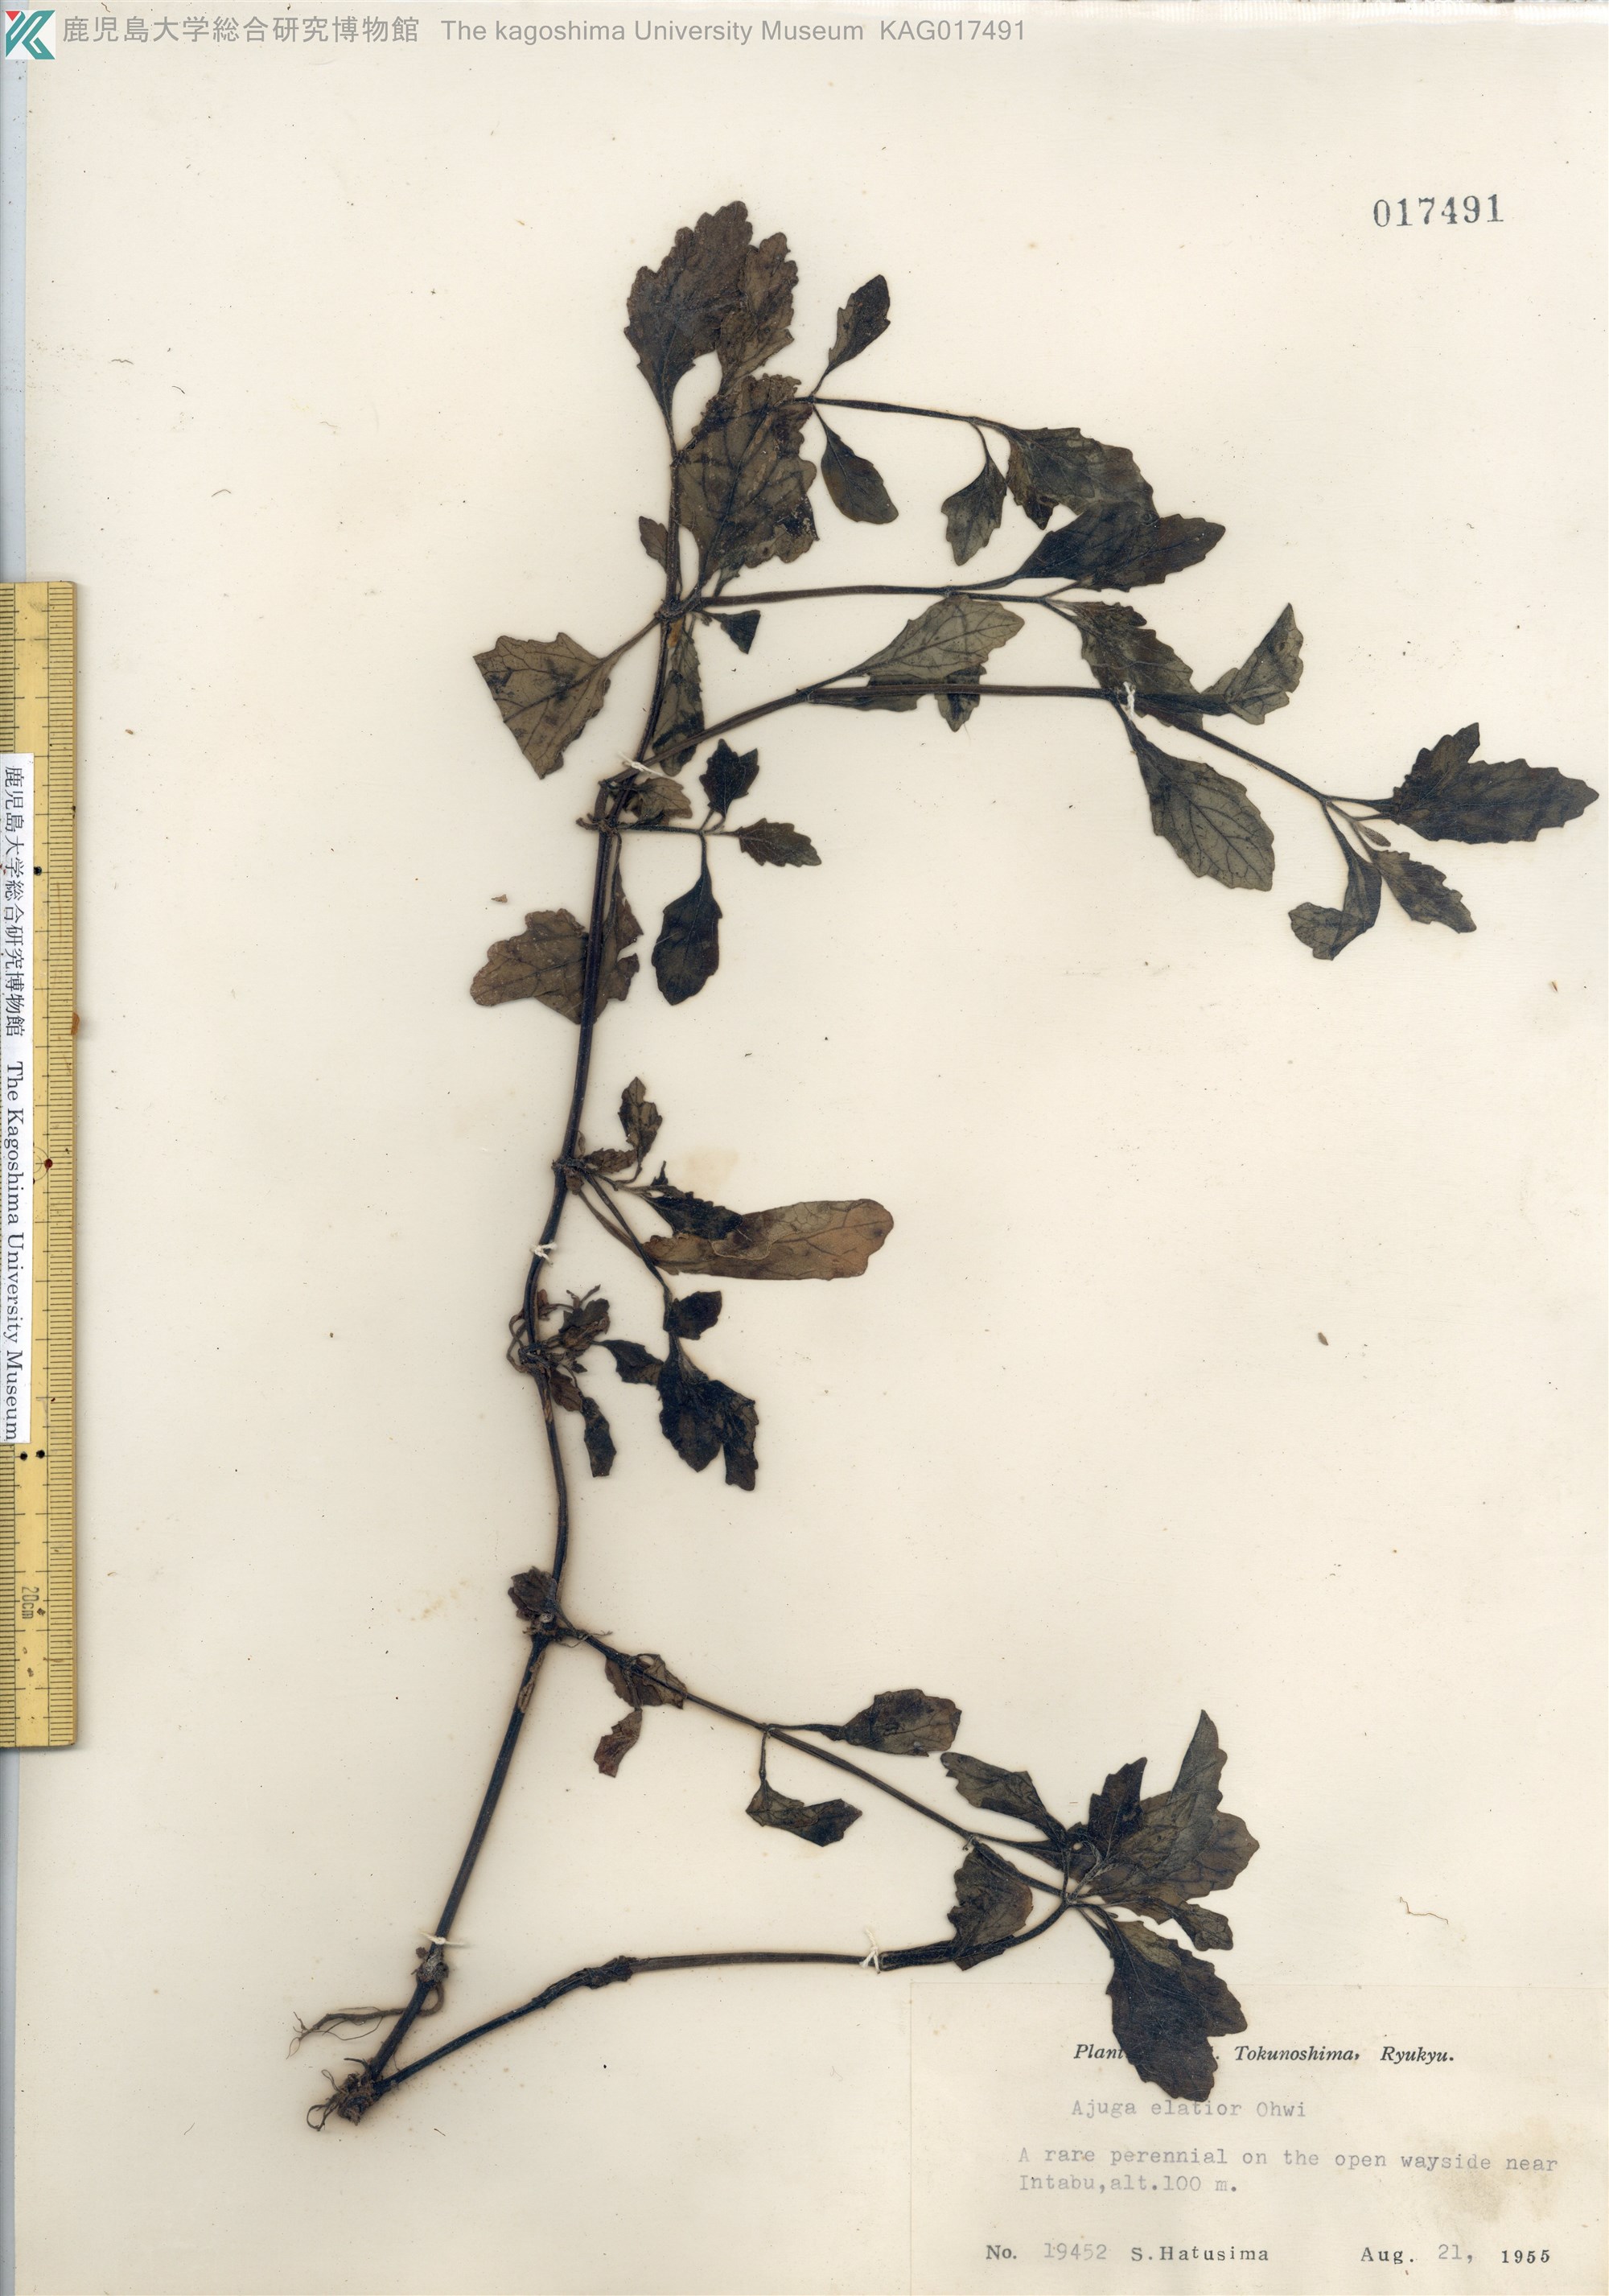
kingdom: Plantae
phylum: Tracheophyta
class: Magnoliopsida
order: Lamiales
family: Lamiaceae
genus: Ajuga
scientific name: Ajuga dictyocarpa
